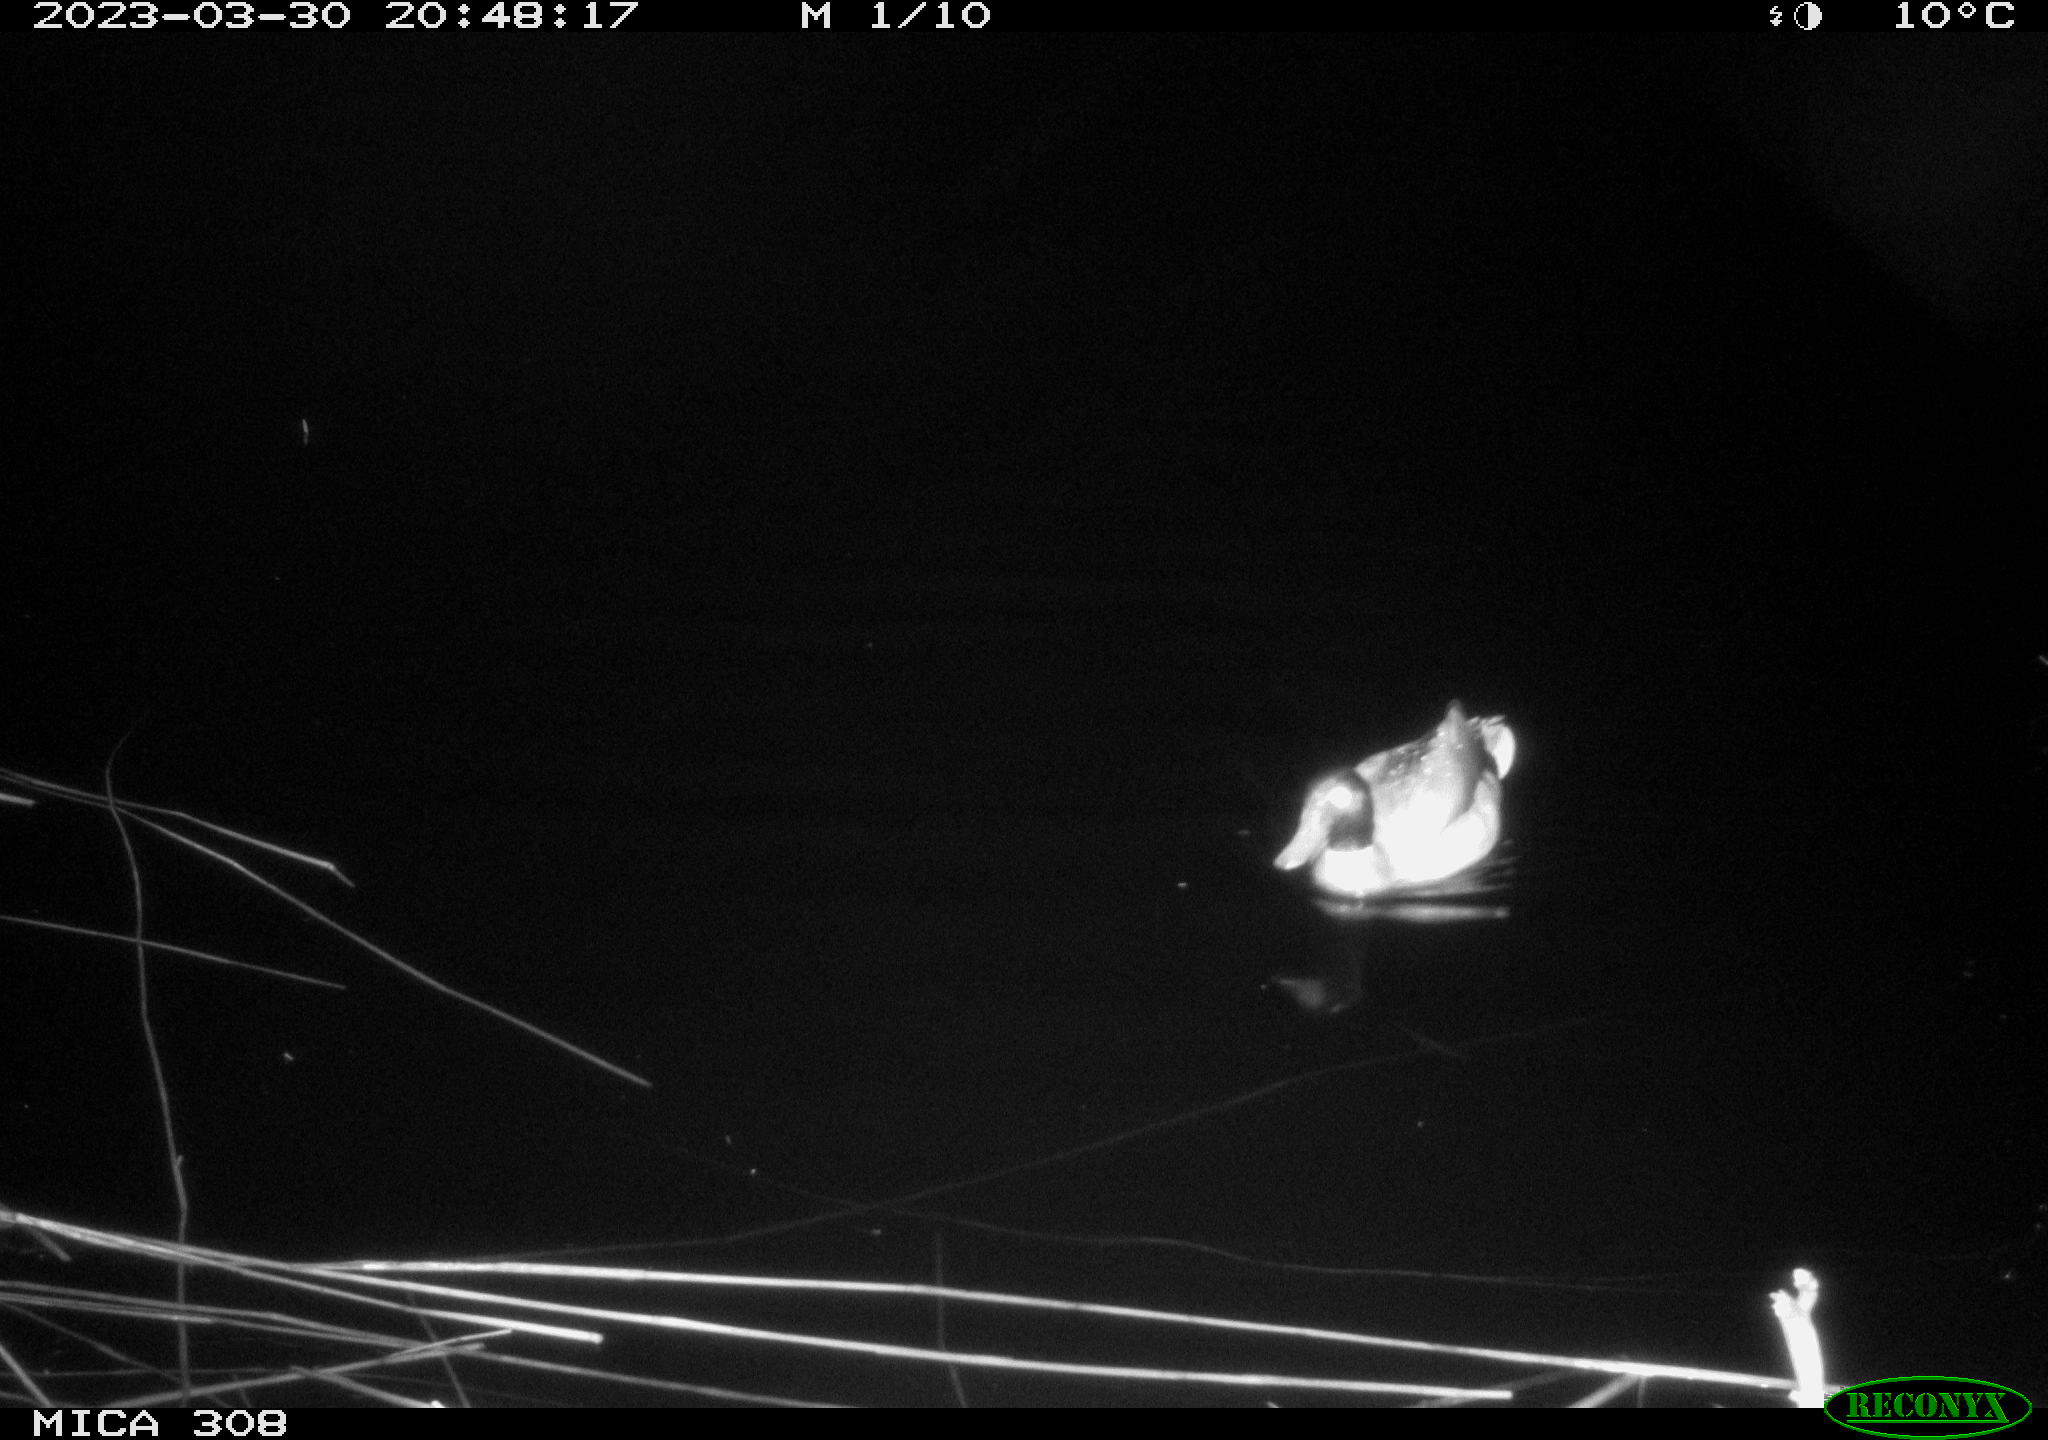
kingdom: Animalia
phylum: Chordata
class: Aves
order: Anseriformes
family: Anatidae
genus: Anas
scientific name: Anas
